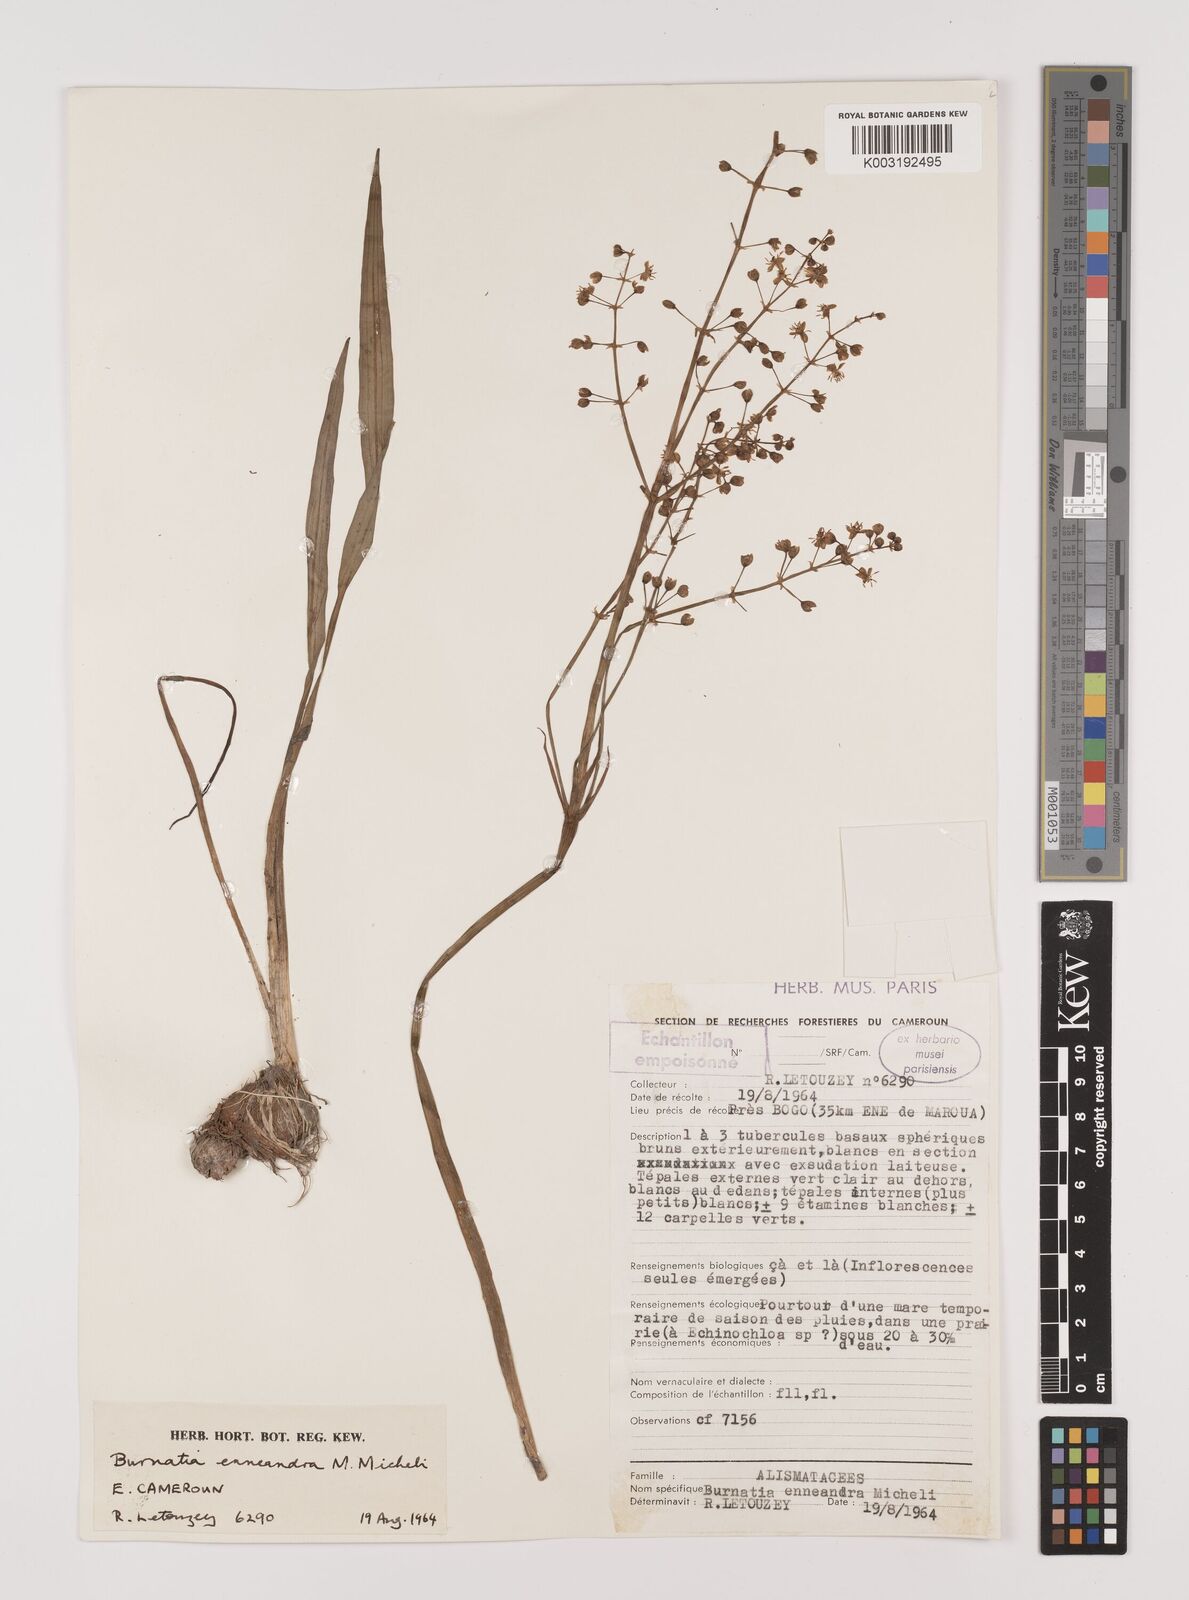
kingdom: Plantae
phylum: Tracheophyta
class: Liliopsida
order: Alismatales
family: Alismataceae
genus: Burnatia
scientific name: Burnatia enneandra
